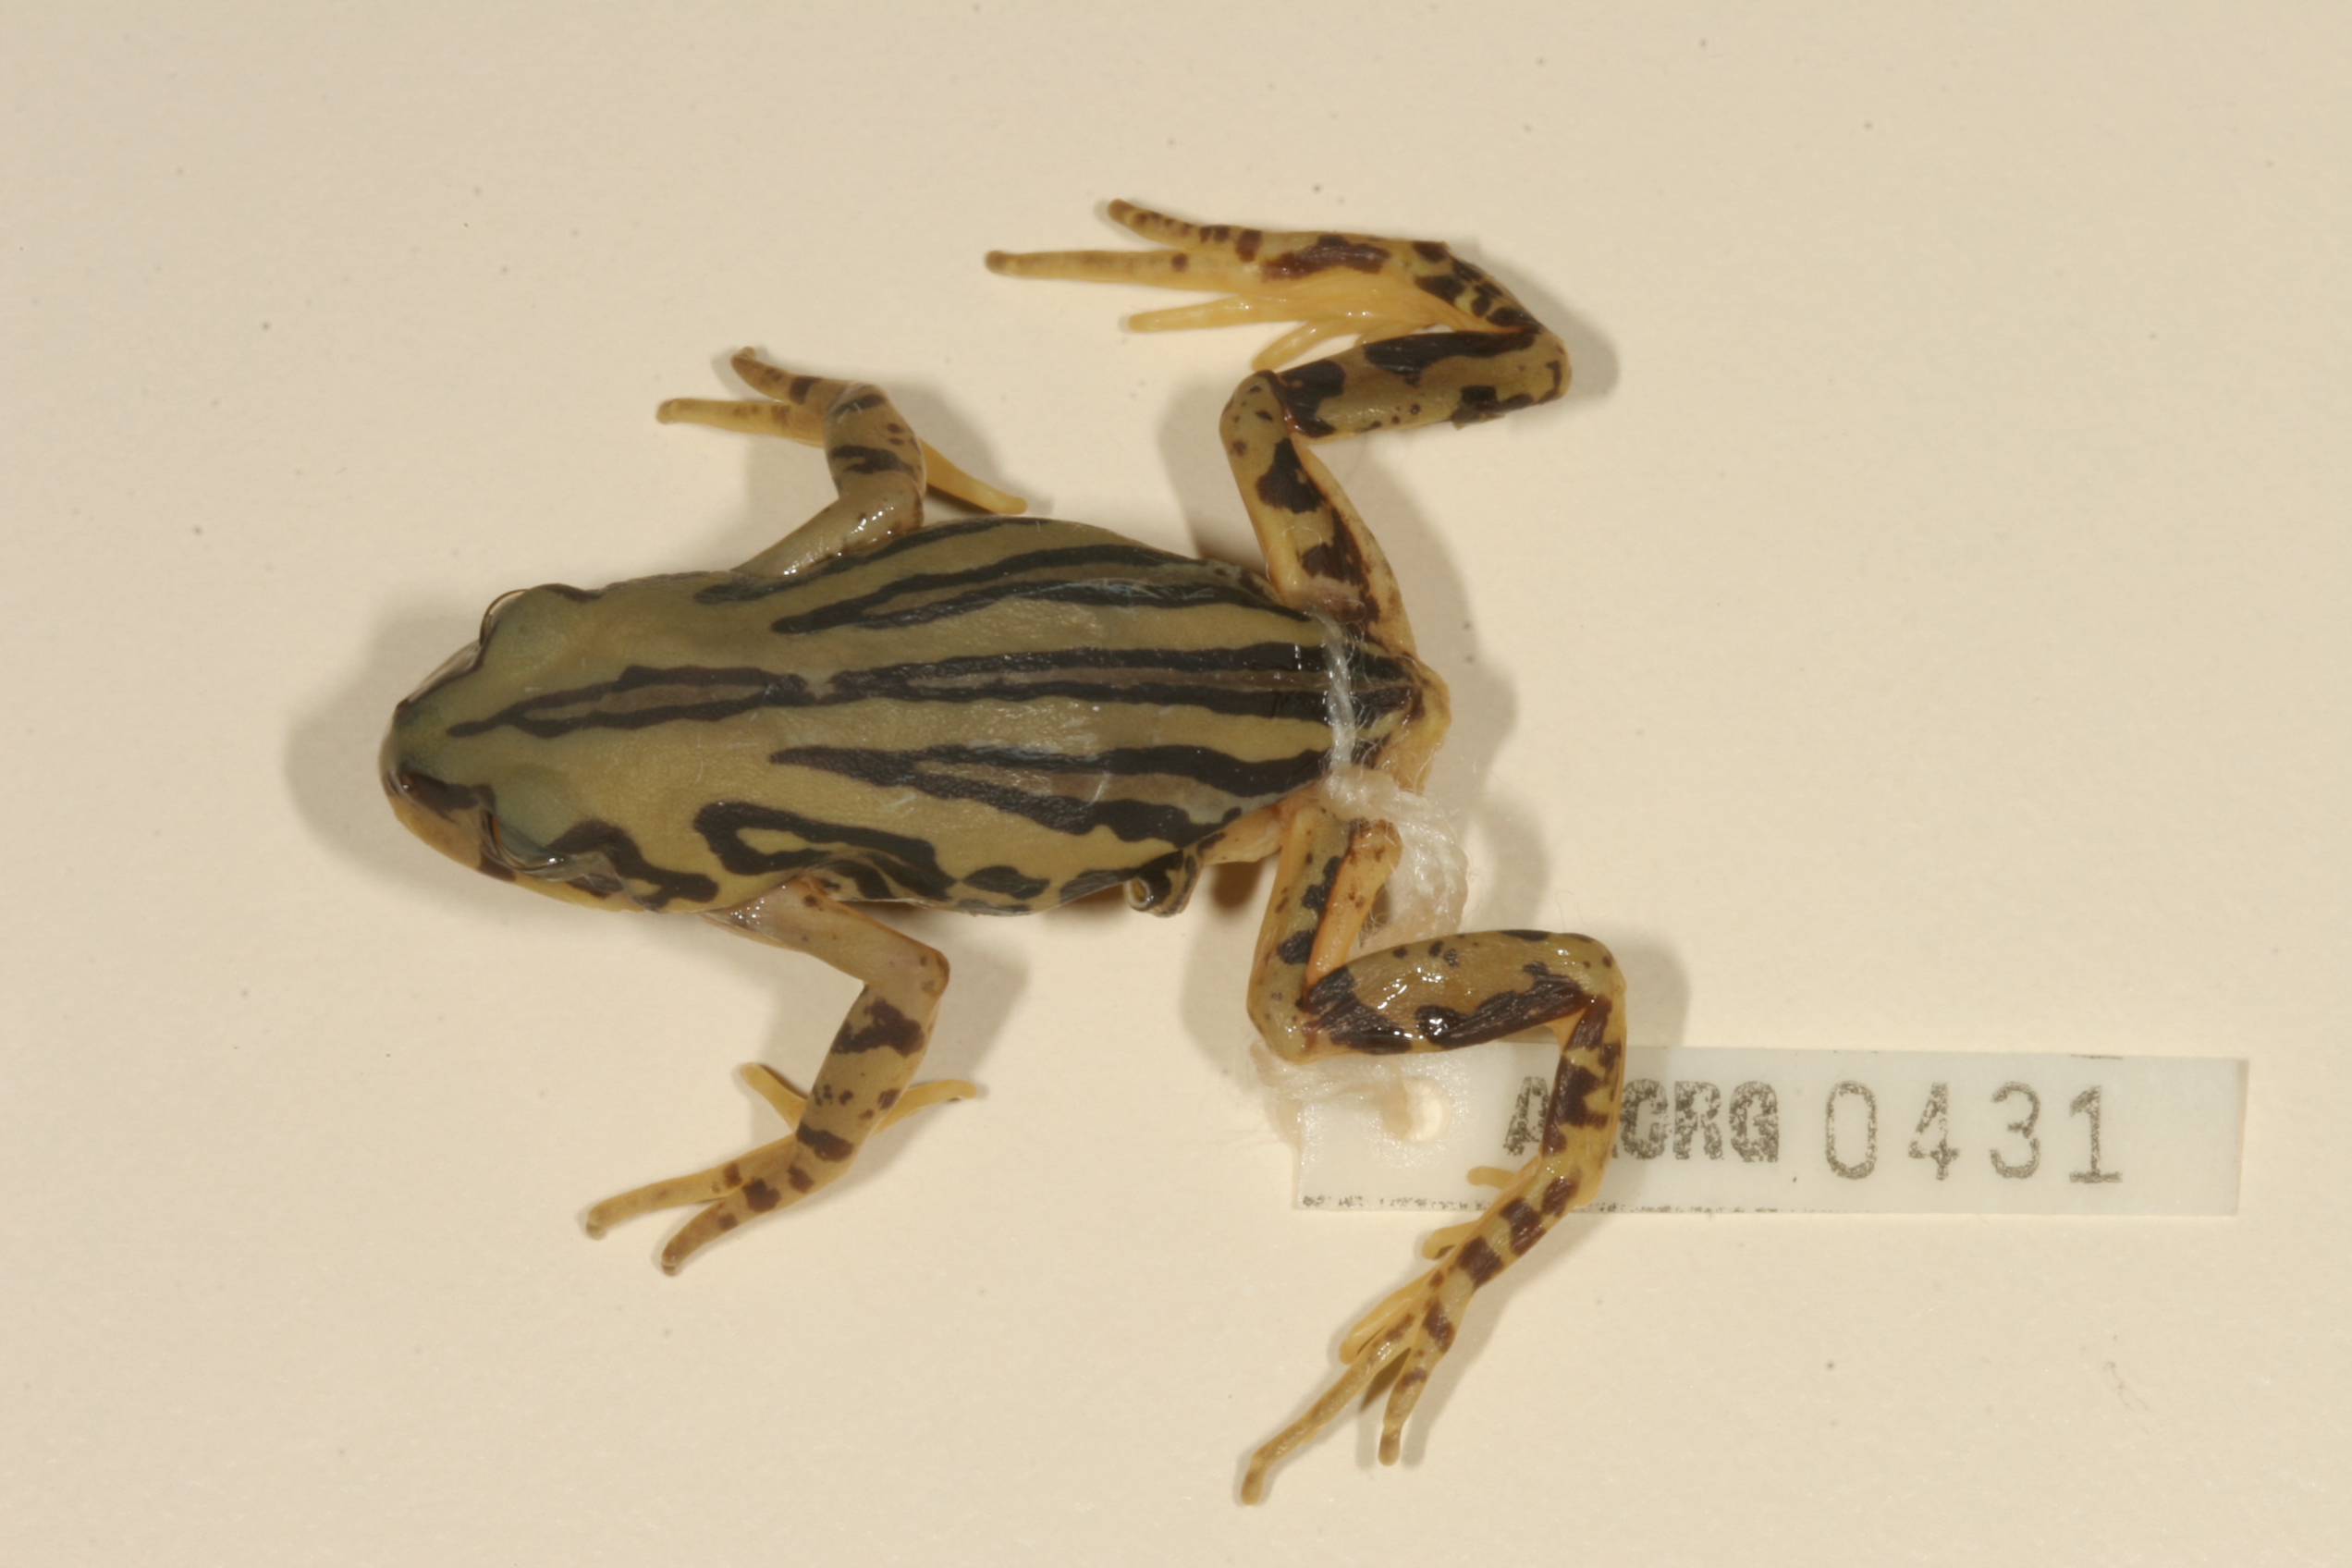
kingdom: Animalia
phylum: Chordata
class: Amphibia
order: Anura
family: Hyperoliidae
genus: Semnodactylus
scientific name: Semnodactylus wealii
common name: Weal's frog
